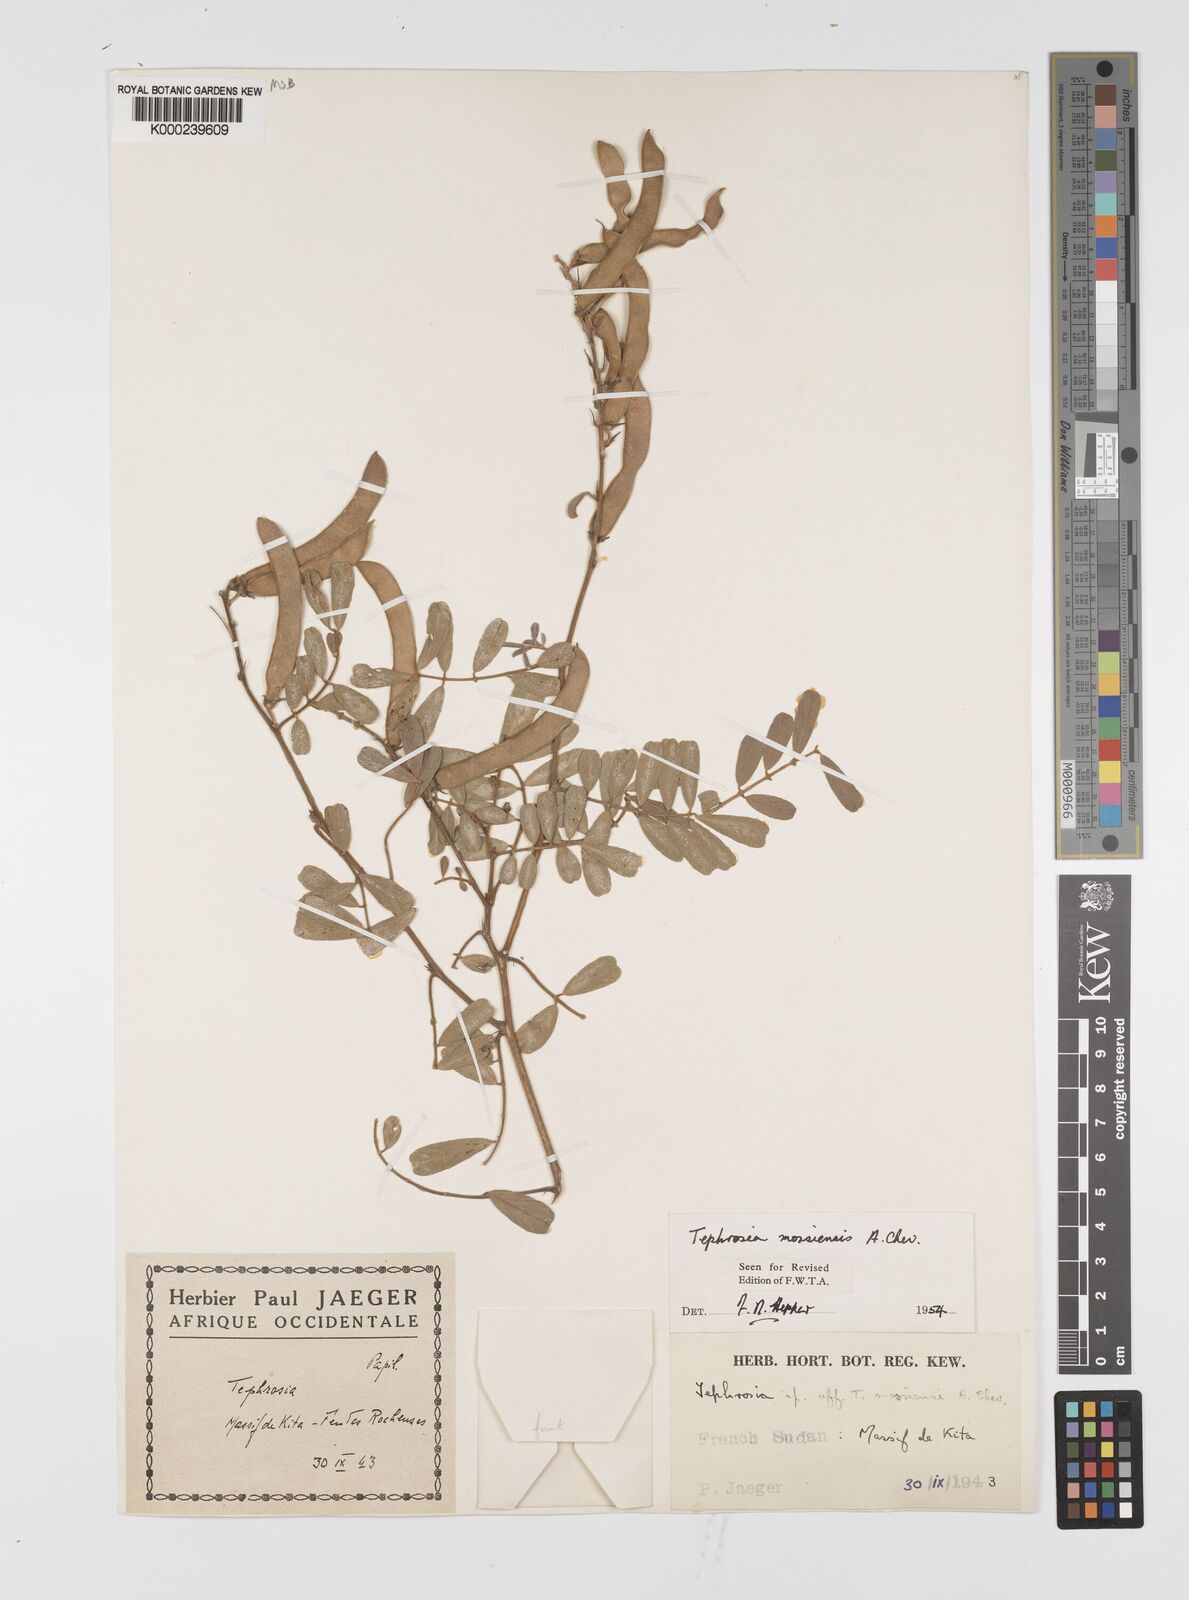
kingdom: Plantae
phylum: Tracheophyta
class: Magnoliopsida
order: Fabales
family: Fabaceae
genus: Tephrosia
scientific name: Tephrosia mossiensis
